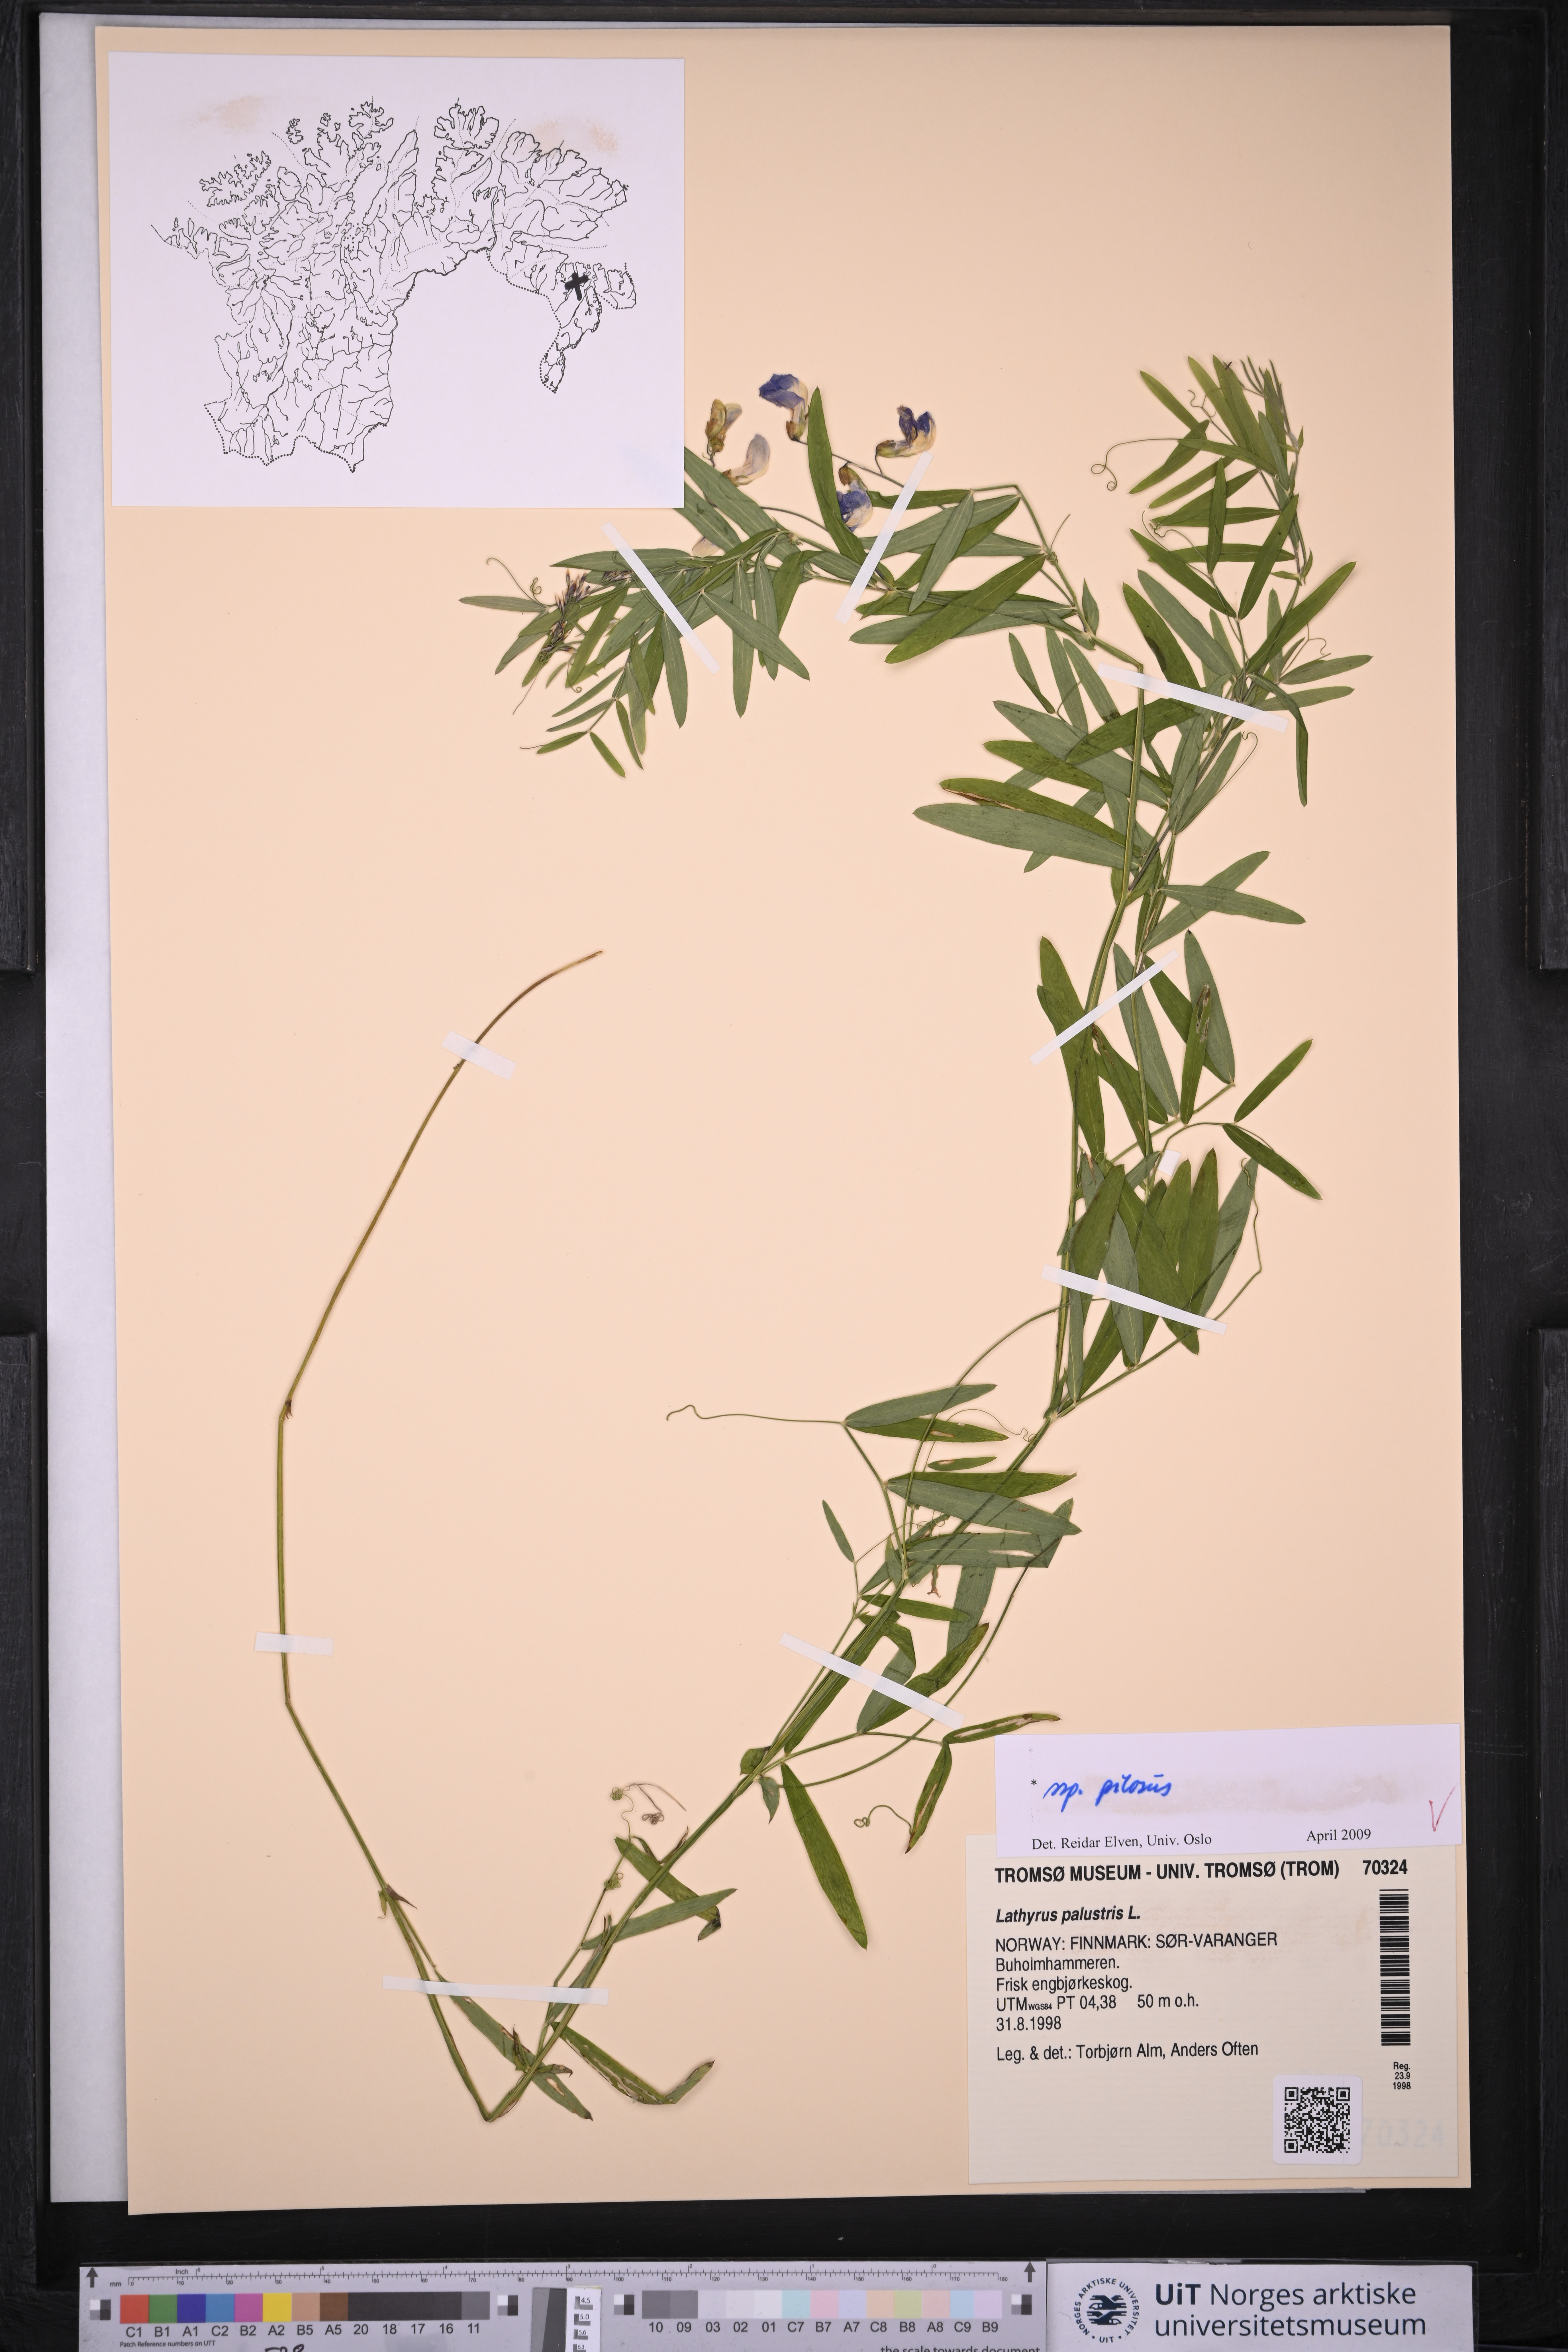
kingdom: Plantae
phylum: Tracheophyta
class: Magnoliopsida
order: Fabales
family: Fabaceae
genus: Lathyrus
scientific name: Lathyrus palustris
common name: Marsh pea
